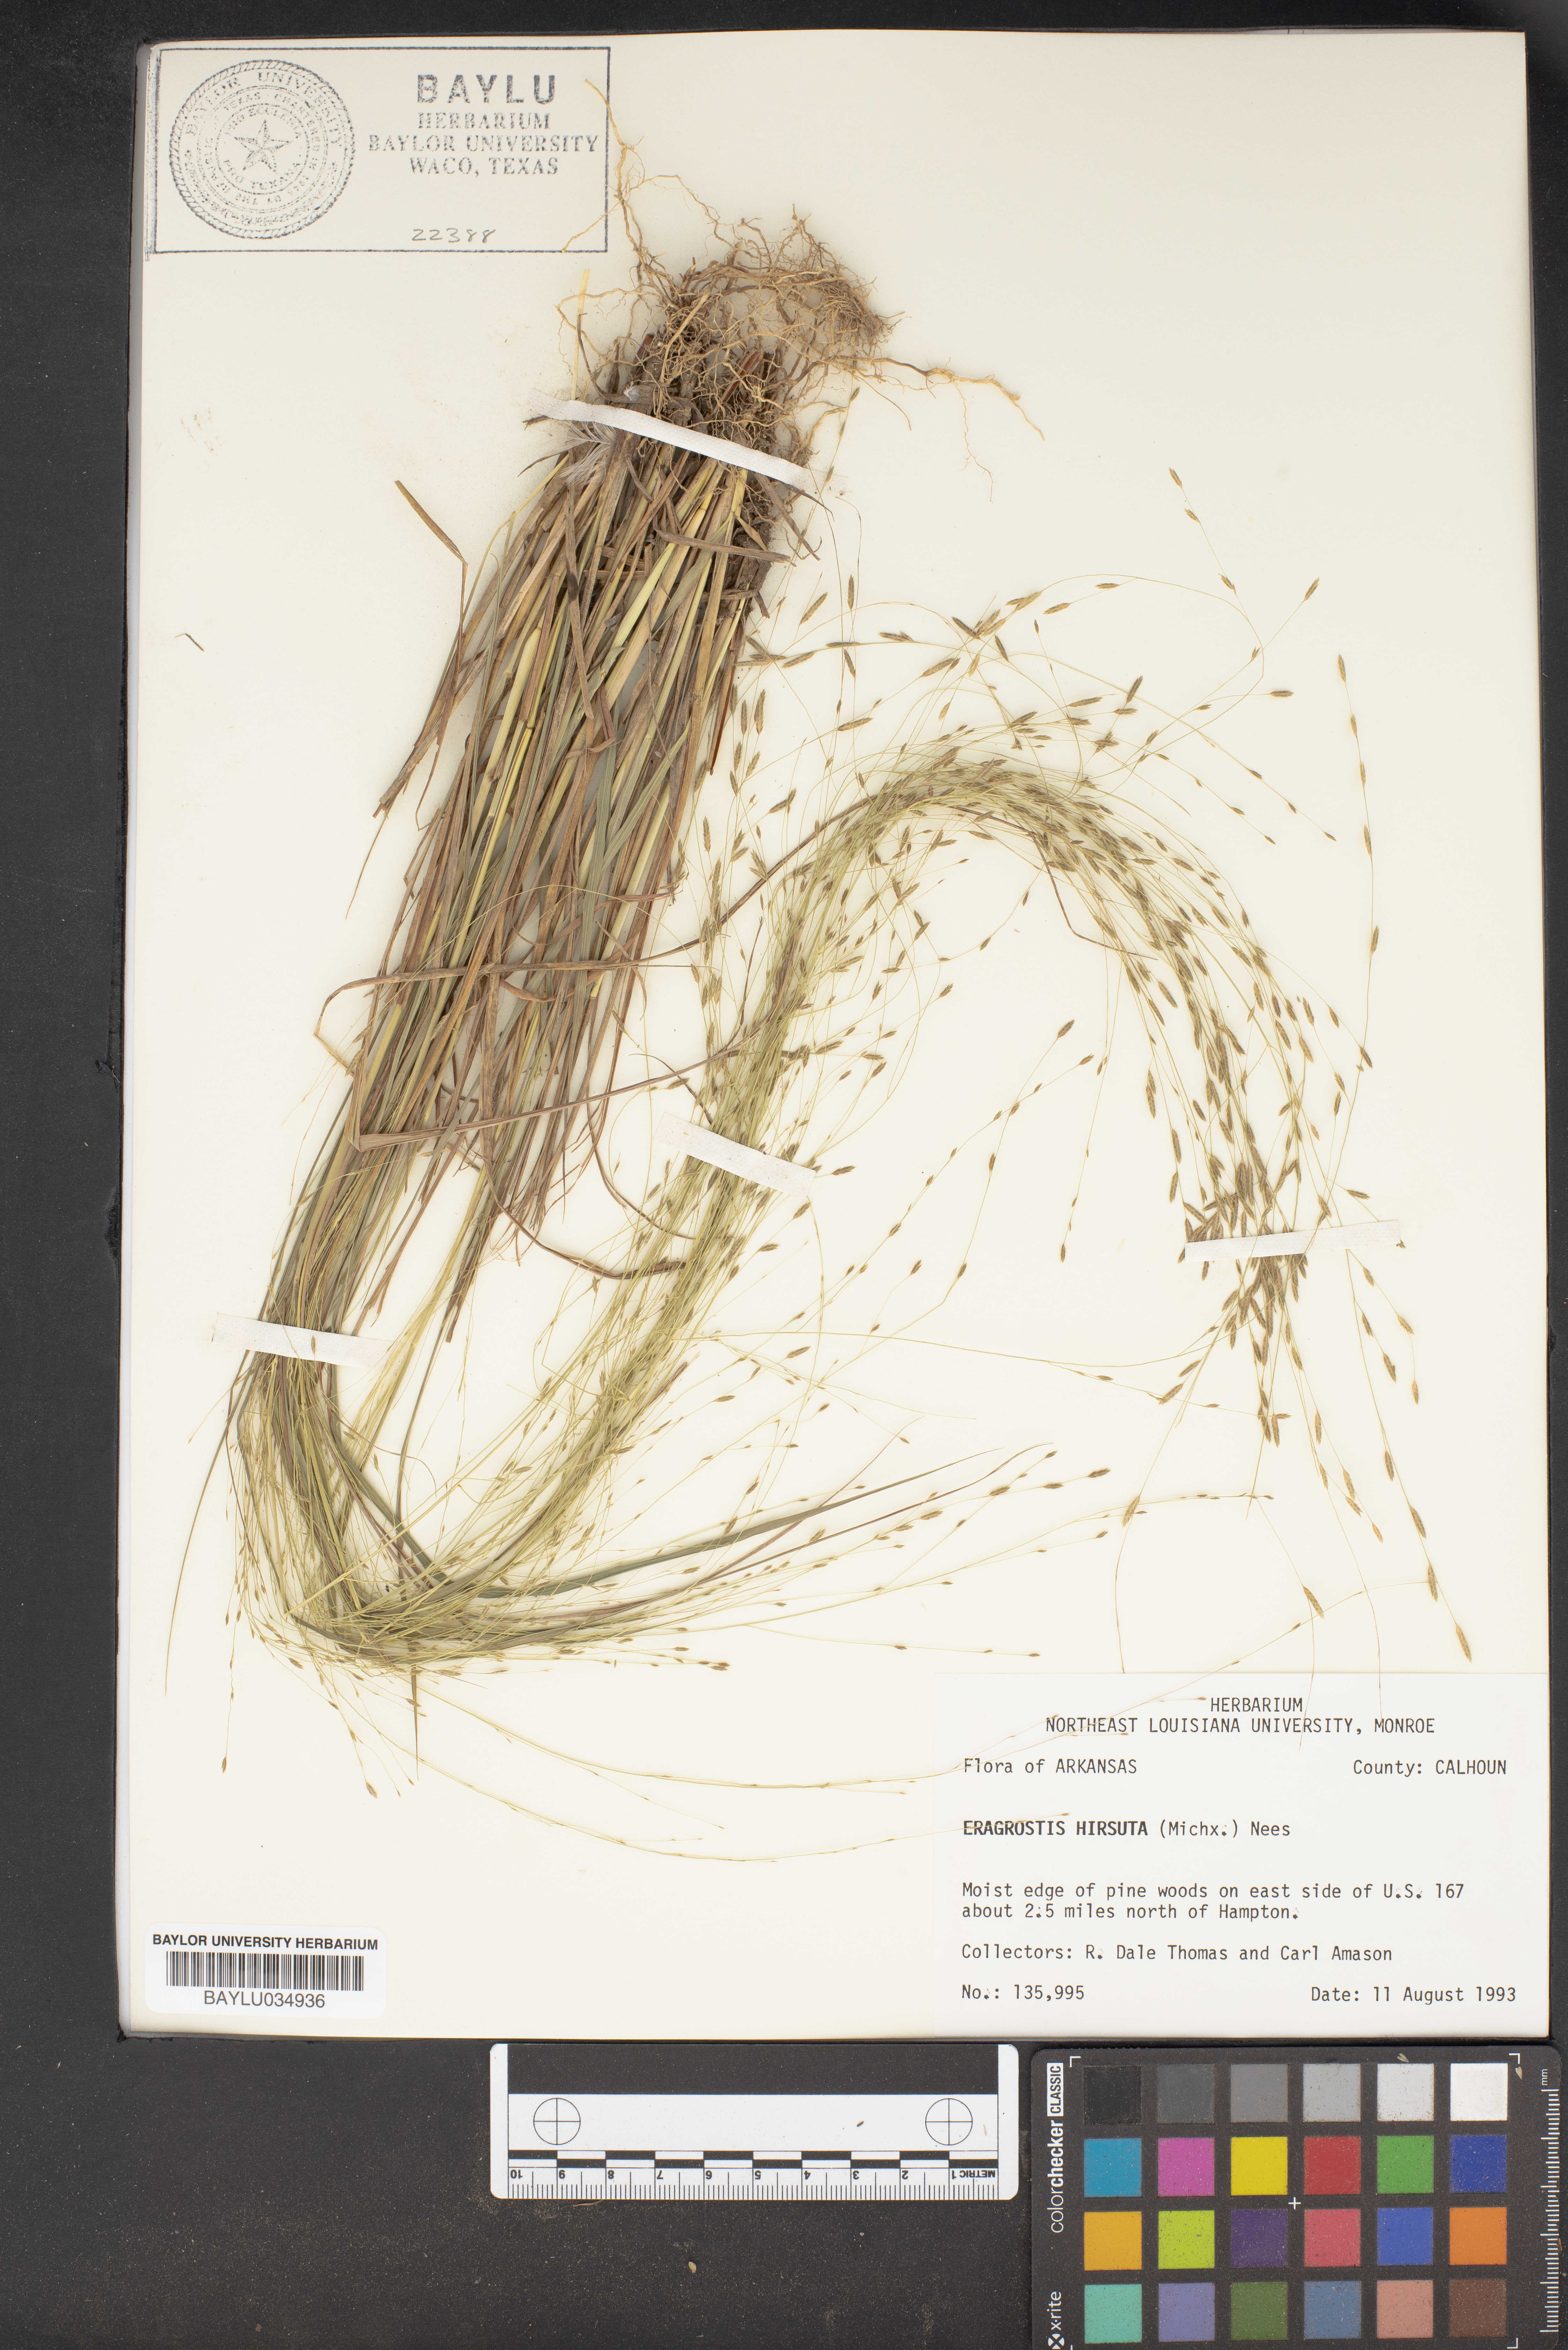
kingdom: Plantae
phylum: Tracheophyta
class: Liliopsida
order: Poales
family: Poaceae
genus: Eragrostis
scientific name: Eragrostis hirsuta
